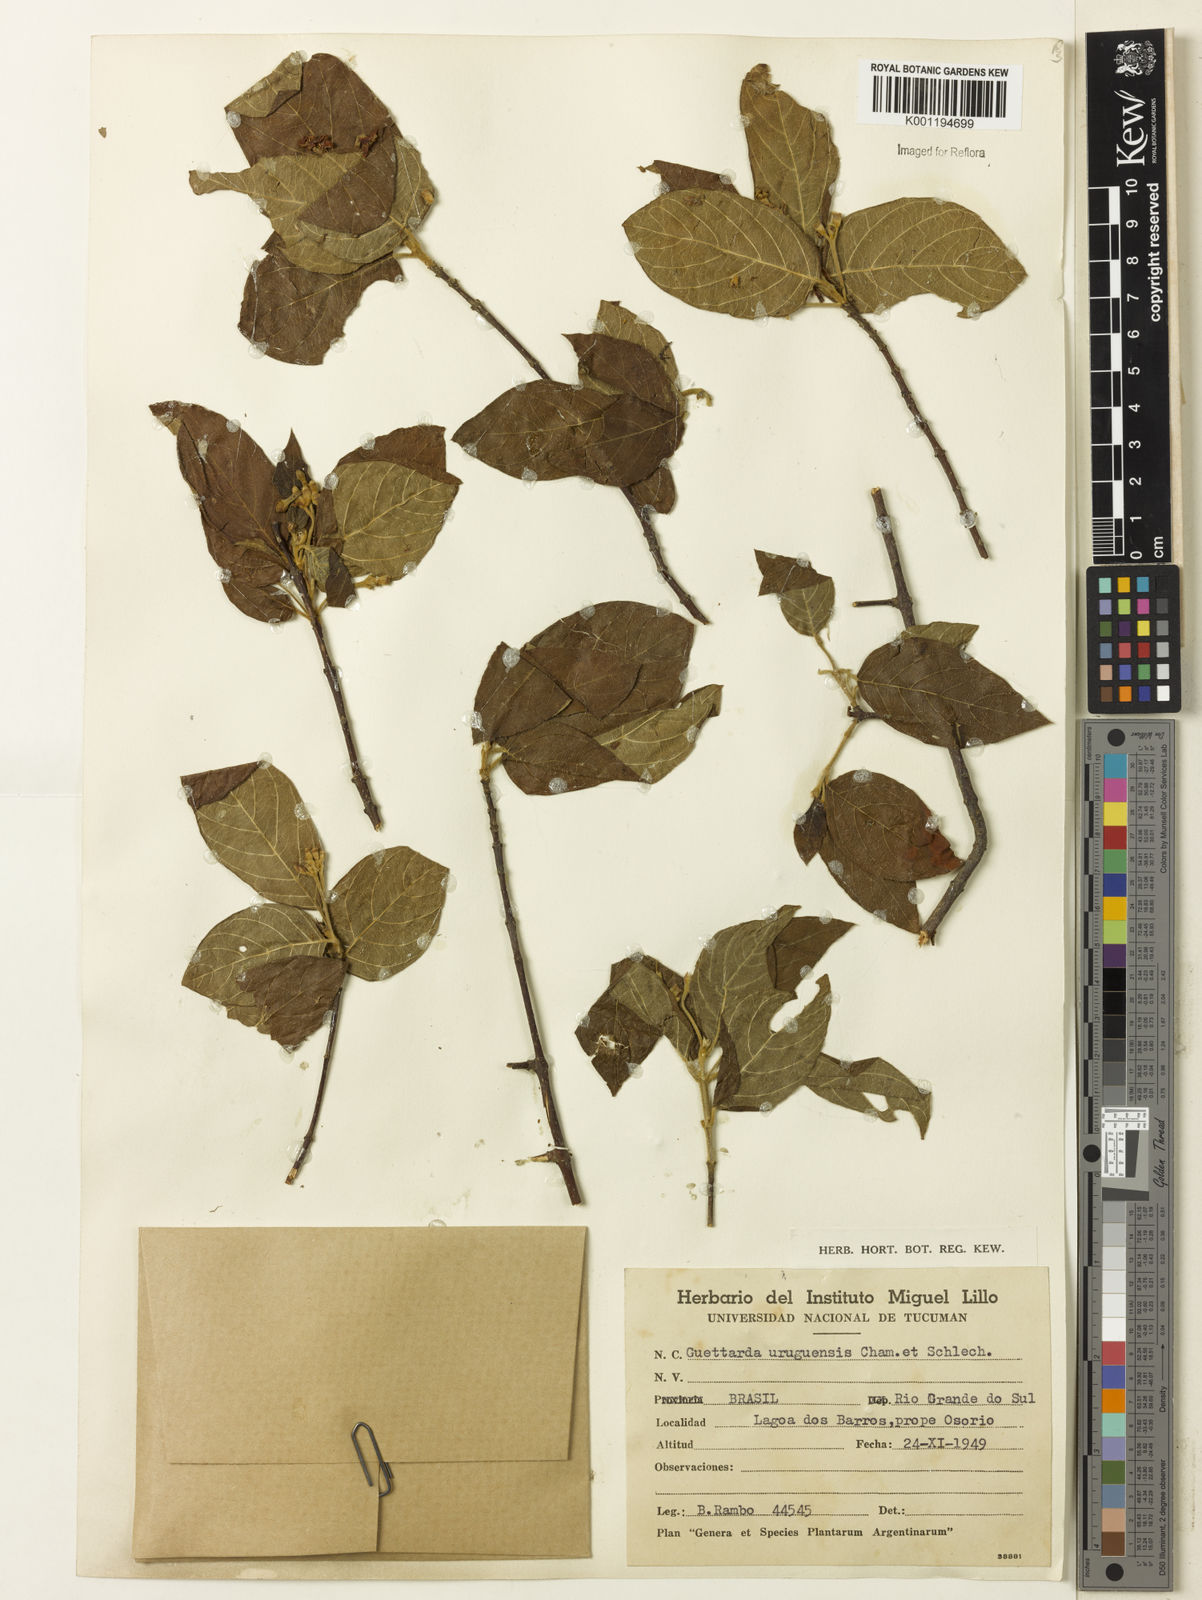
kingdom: Plantae
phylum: Tracheophyta
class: Magnoliopsida
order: Gentianales
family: Rubiaceae
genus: Guettarda
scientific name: Guettarda uruguensis
